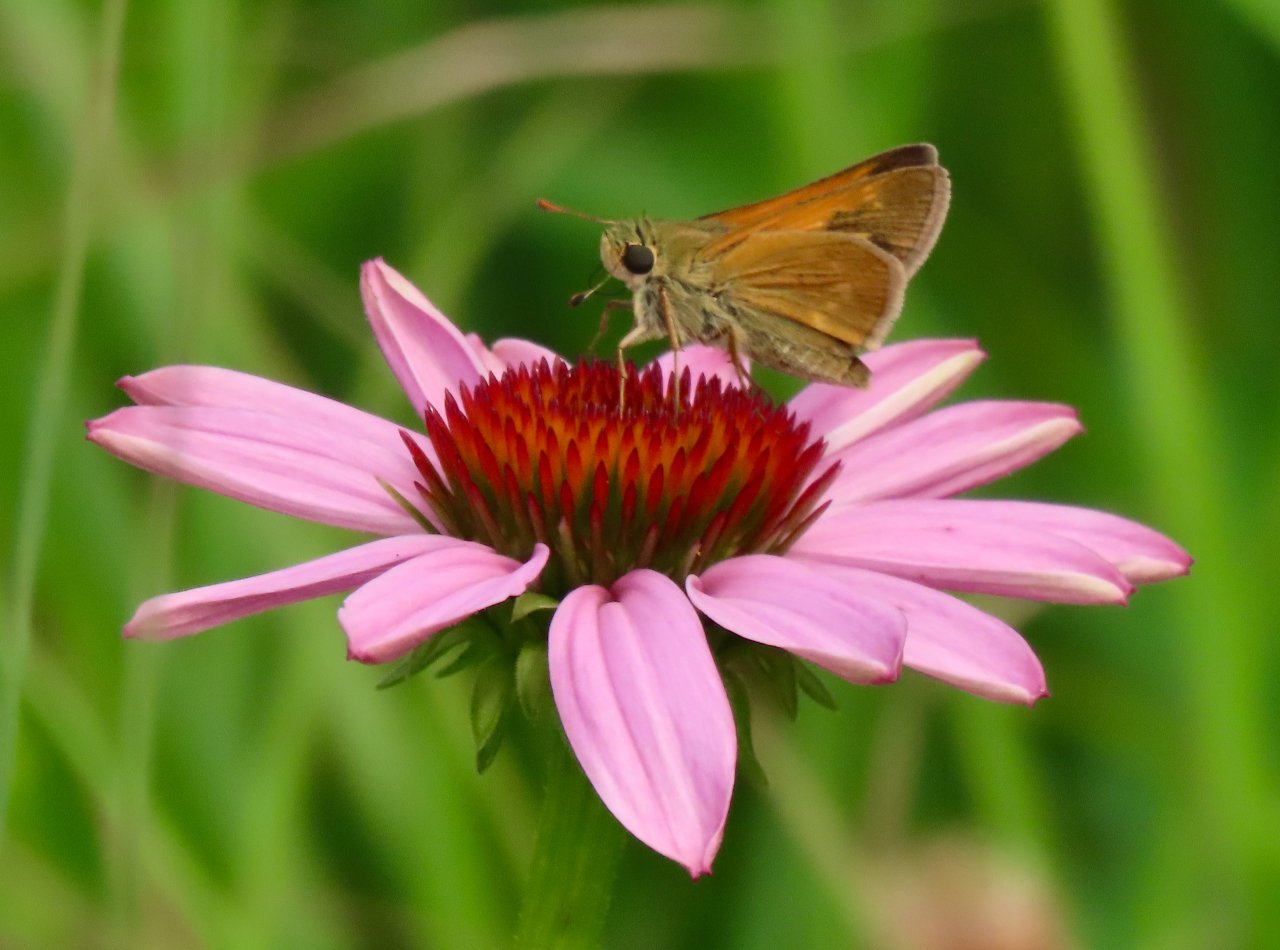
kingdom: Animalia
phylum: Arthropoda
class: Insecta
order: Lepidoptera
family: Hesperiidae
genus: Polites
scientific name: Polites themistocles
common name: Tawny-edged Skipper
